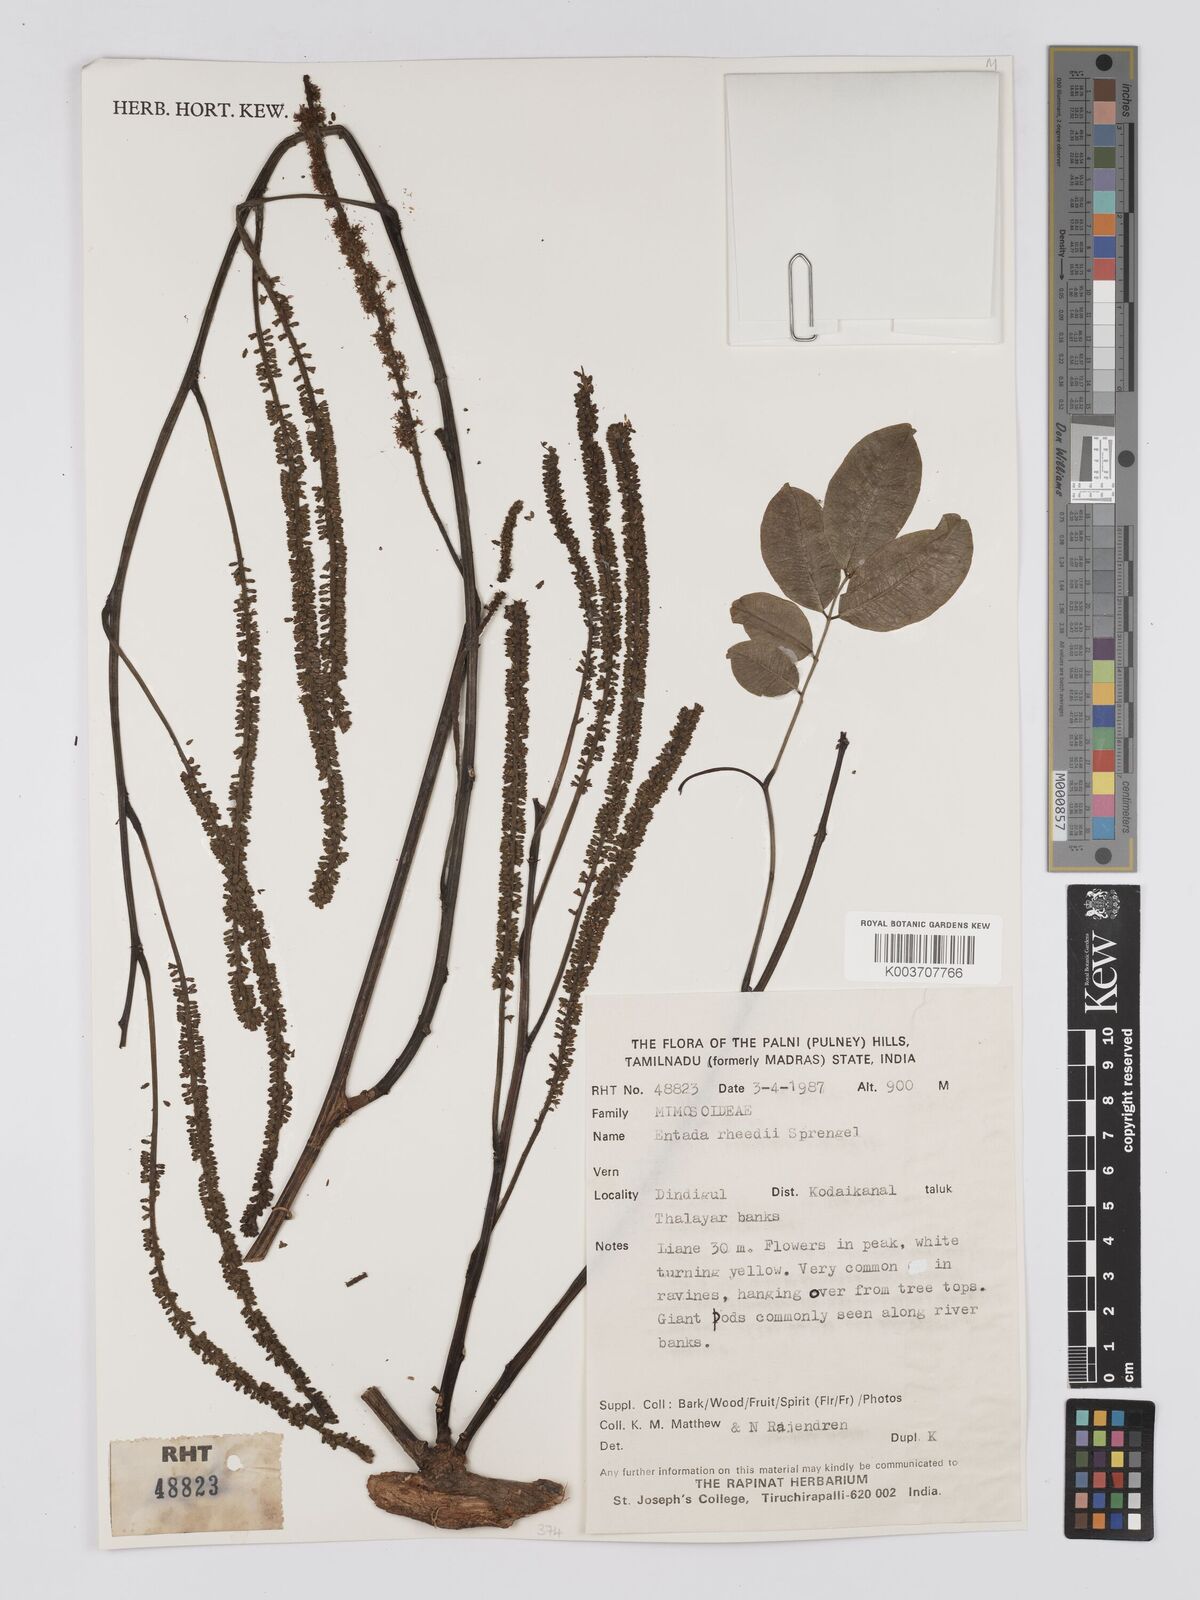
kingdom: Plantae
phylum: Tracheophyta
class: Magnoliopsida
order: Fabales
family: Fabaceae
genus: Entada
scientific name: Entada rheedei
